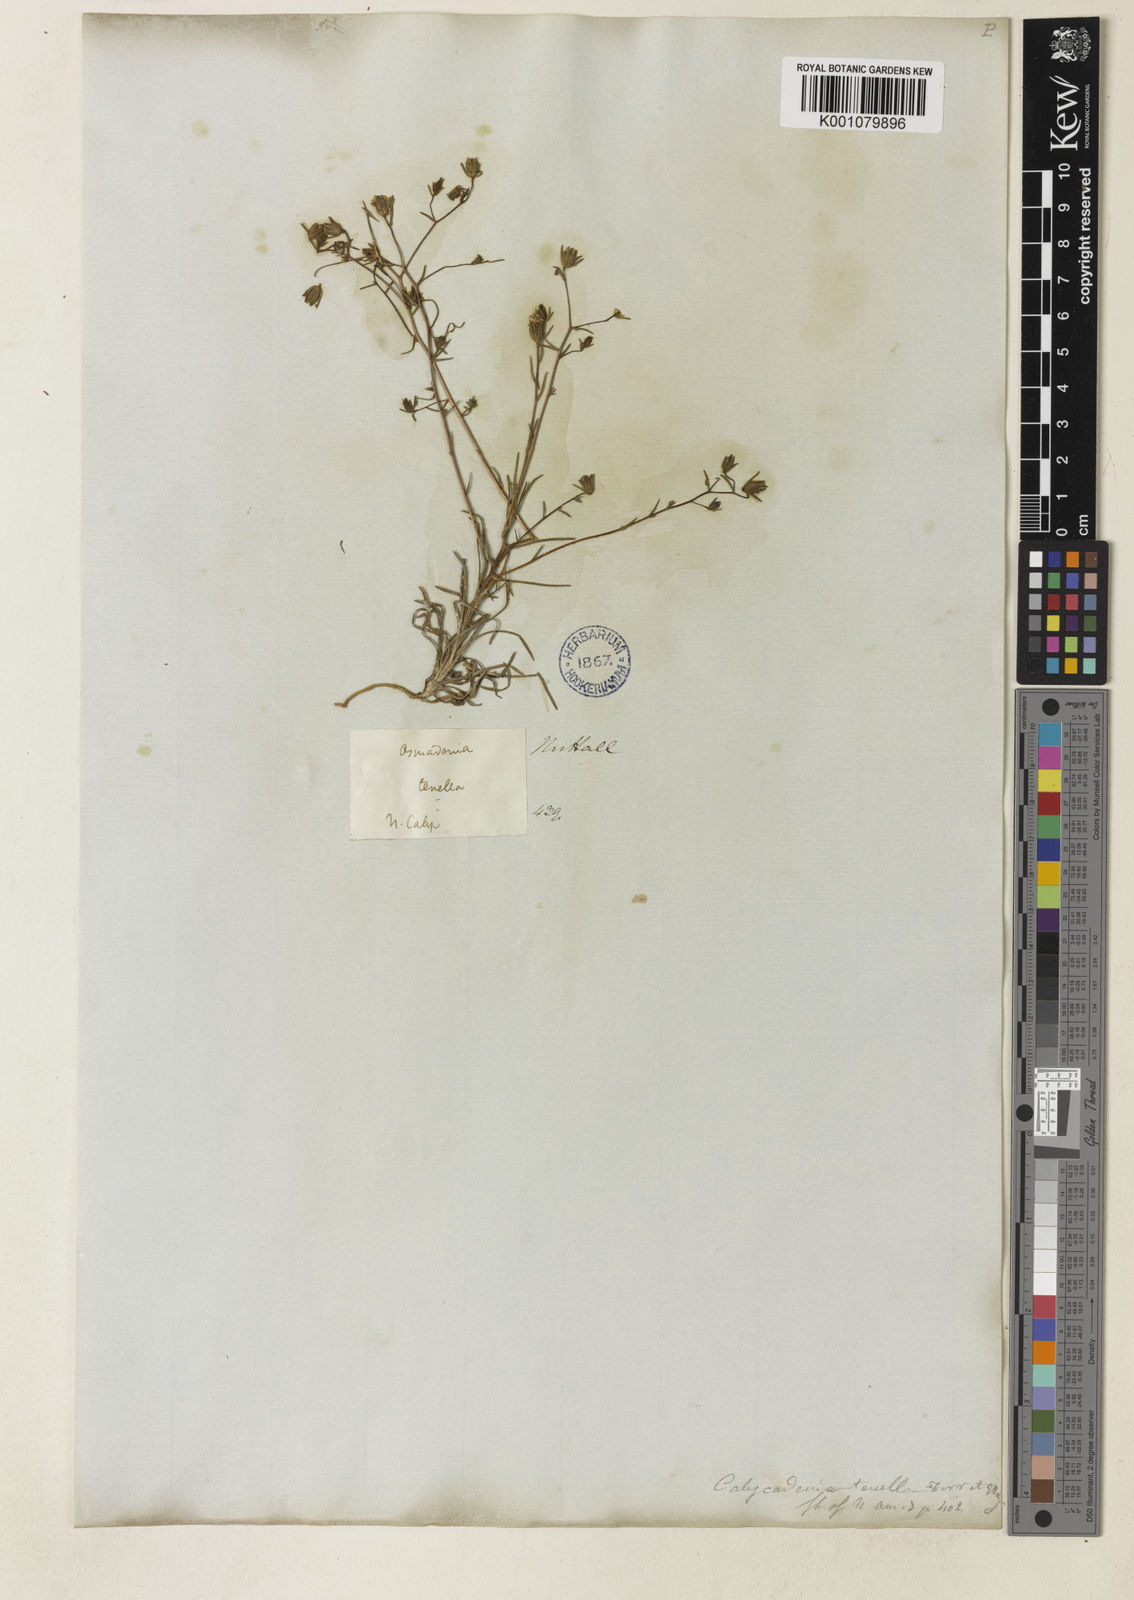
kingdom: Plantae
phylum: Tracheophyta
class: Magnoliopsida
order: Asterales
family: Asteraceae
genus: Osmadenia
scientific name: Osmadenia tenella
